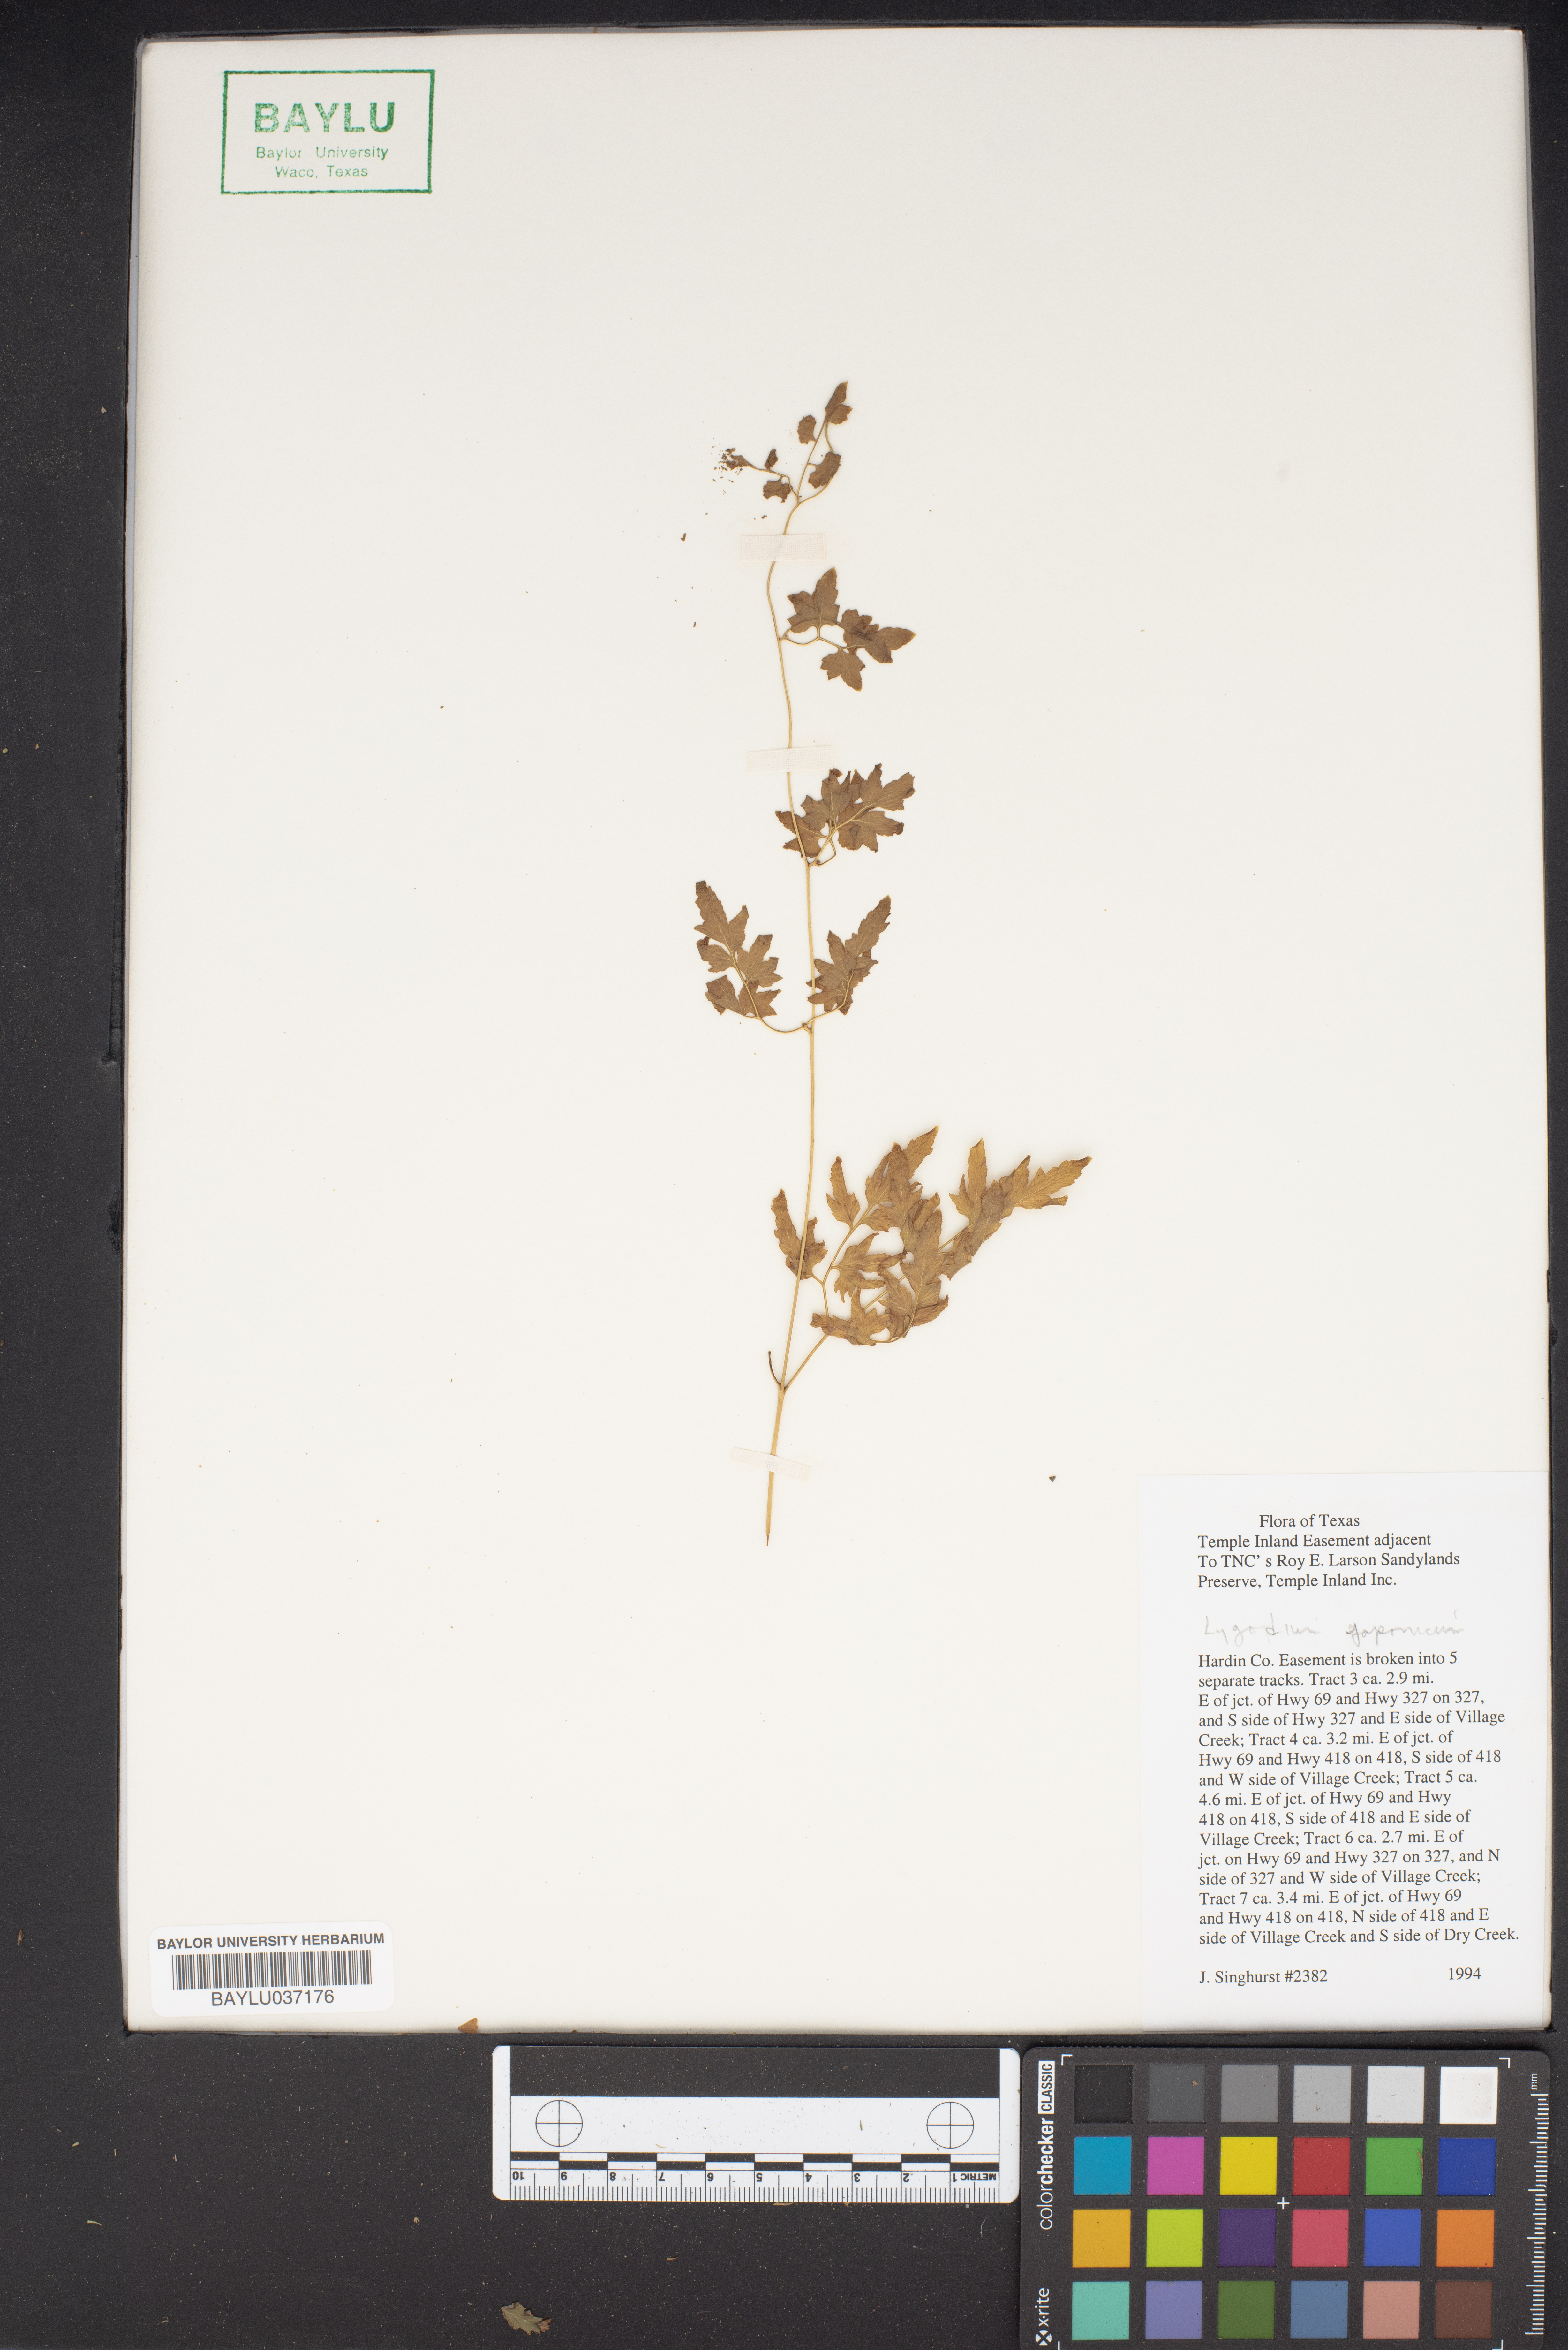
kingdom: Plantae
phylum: Tracheophyta
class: Polypodiopsida
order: Schizaeales
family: Lygodiaceae
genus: Lygodium
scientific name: Lygodium japonicum
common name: Japanese climbing fern
